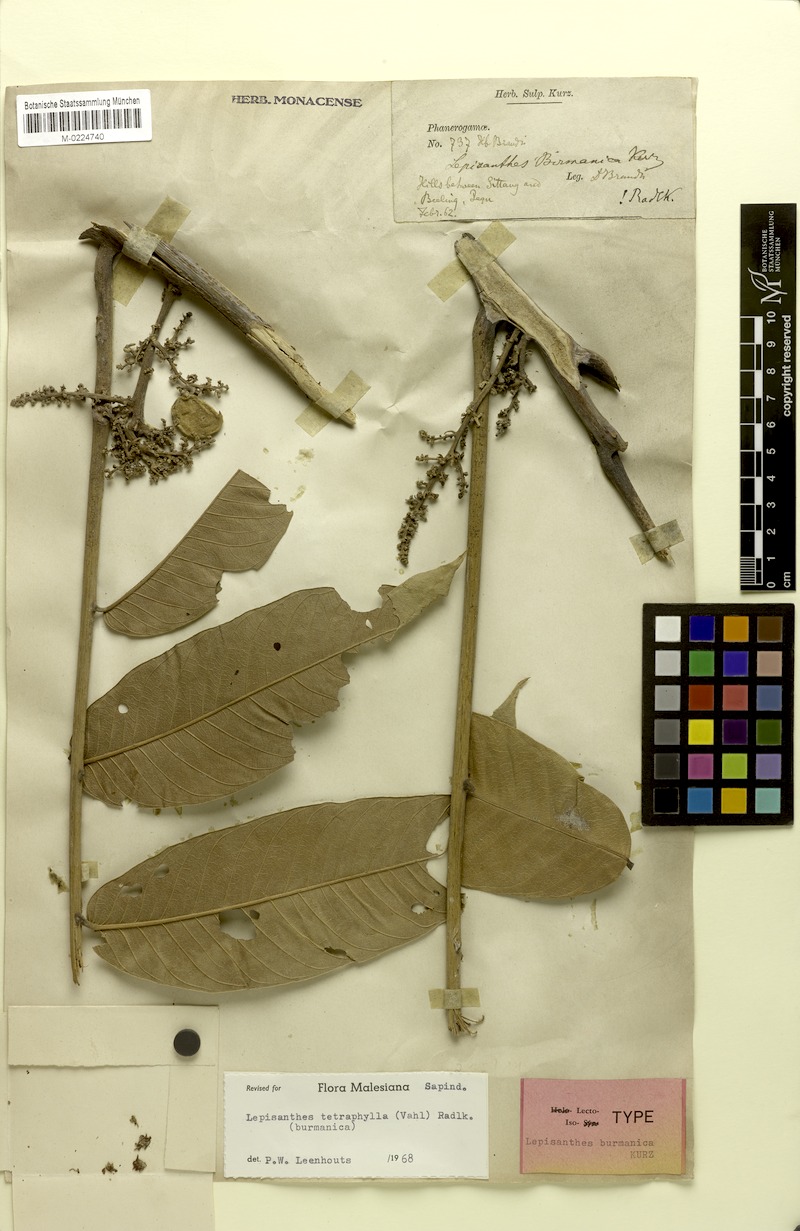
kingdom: Plantae
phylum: Tracheophyta
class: Magnoliopsida
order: Sapindales
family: Sapindaceae
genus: Lepisanthes
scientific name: Lepisanthes tetraphylla
